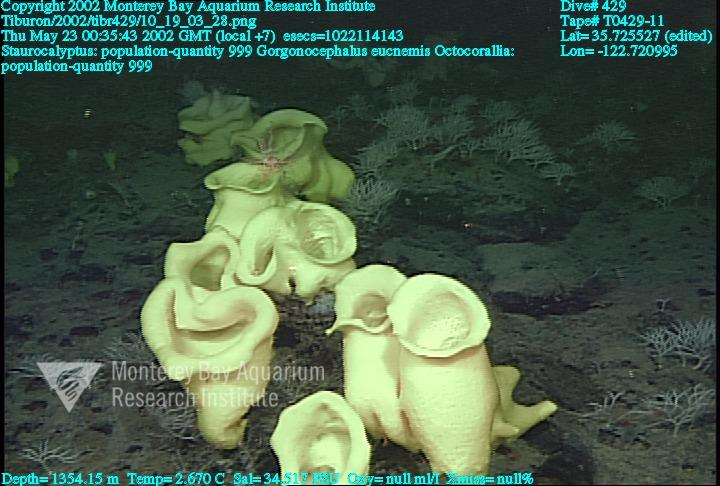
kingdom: Animalia
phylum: Porifera
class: Hexactinellida
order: Lyssacinosida
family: Rossellidae
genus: Staurocalyptus
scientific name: Staurocalyptus
